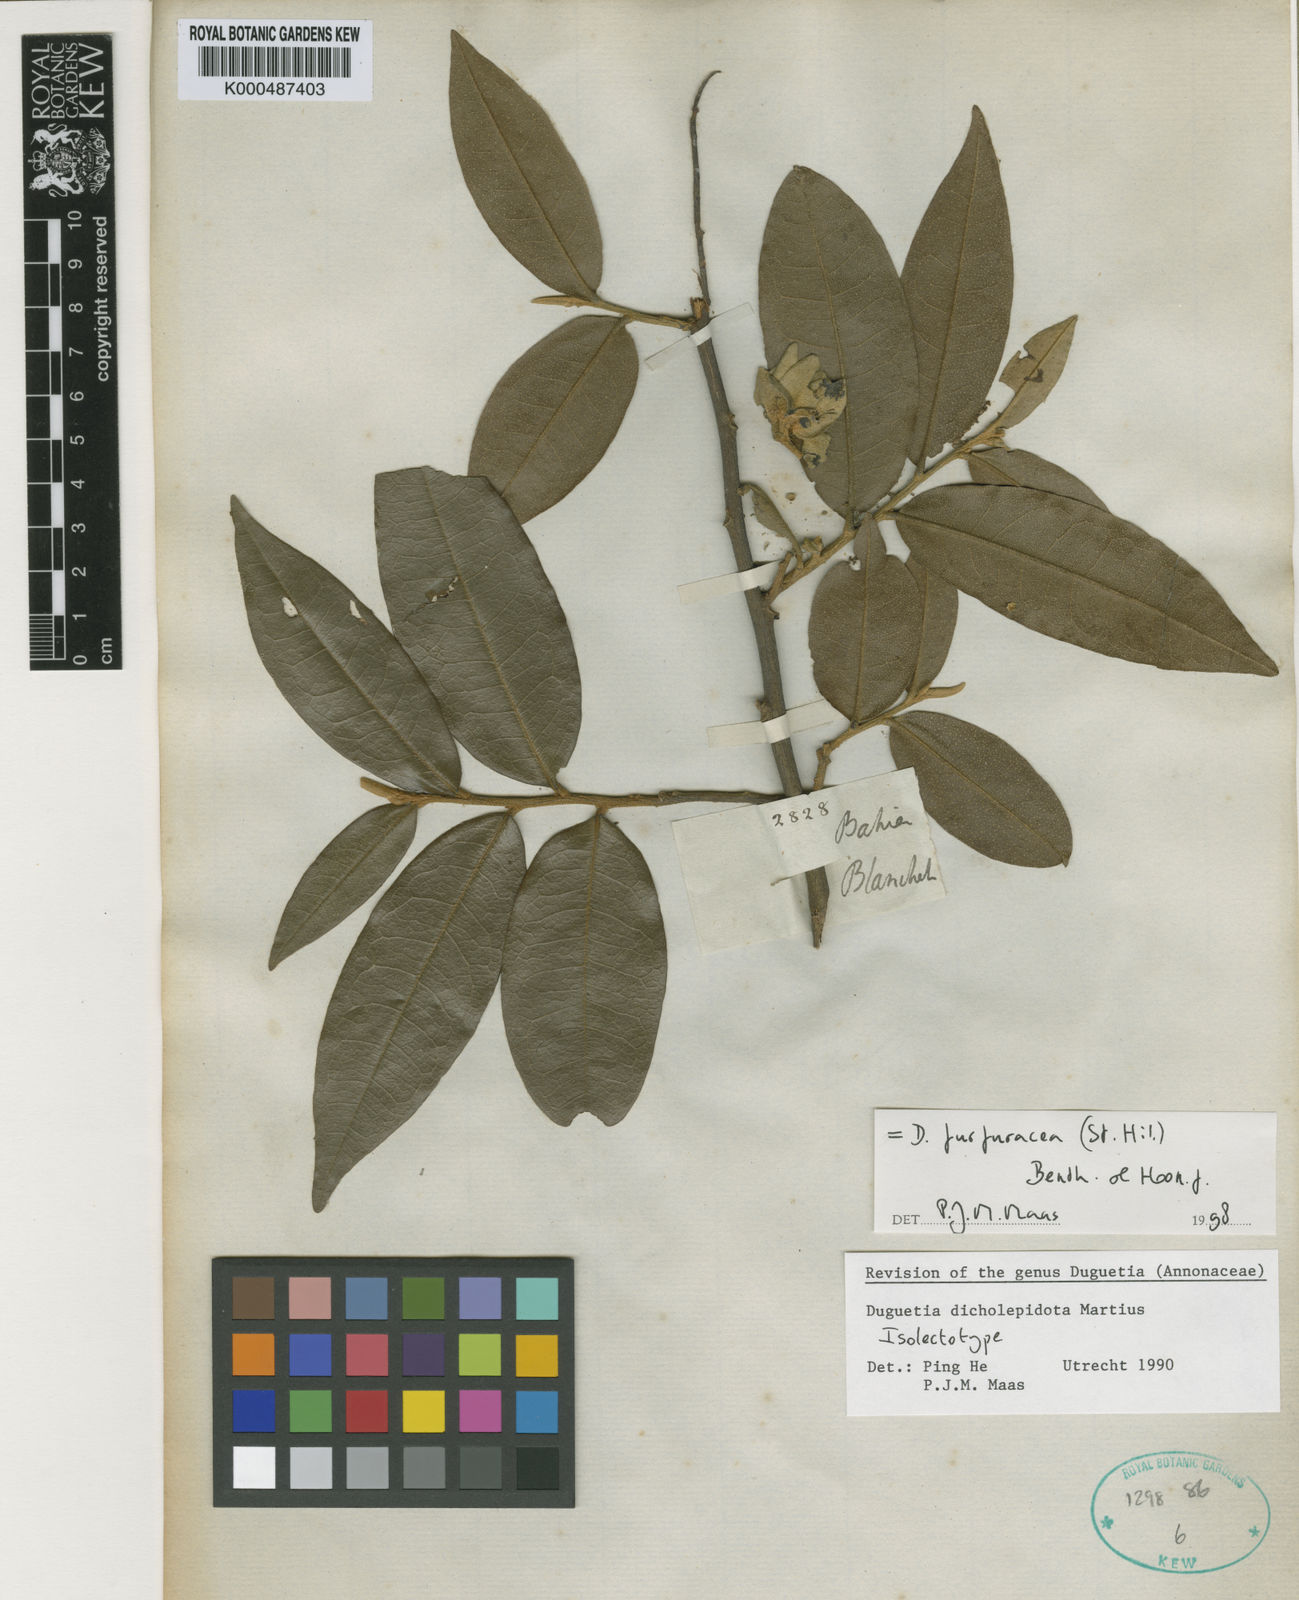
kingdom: Plantae
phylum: Tracheophyta
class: Magnoliopsida
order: Magnoliales
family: Annonaceae
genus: Duguetia
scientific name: Duguetia dicholepidota
